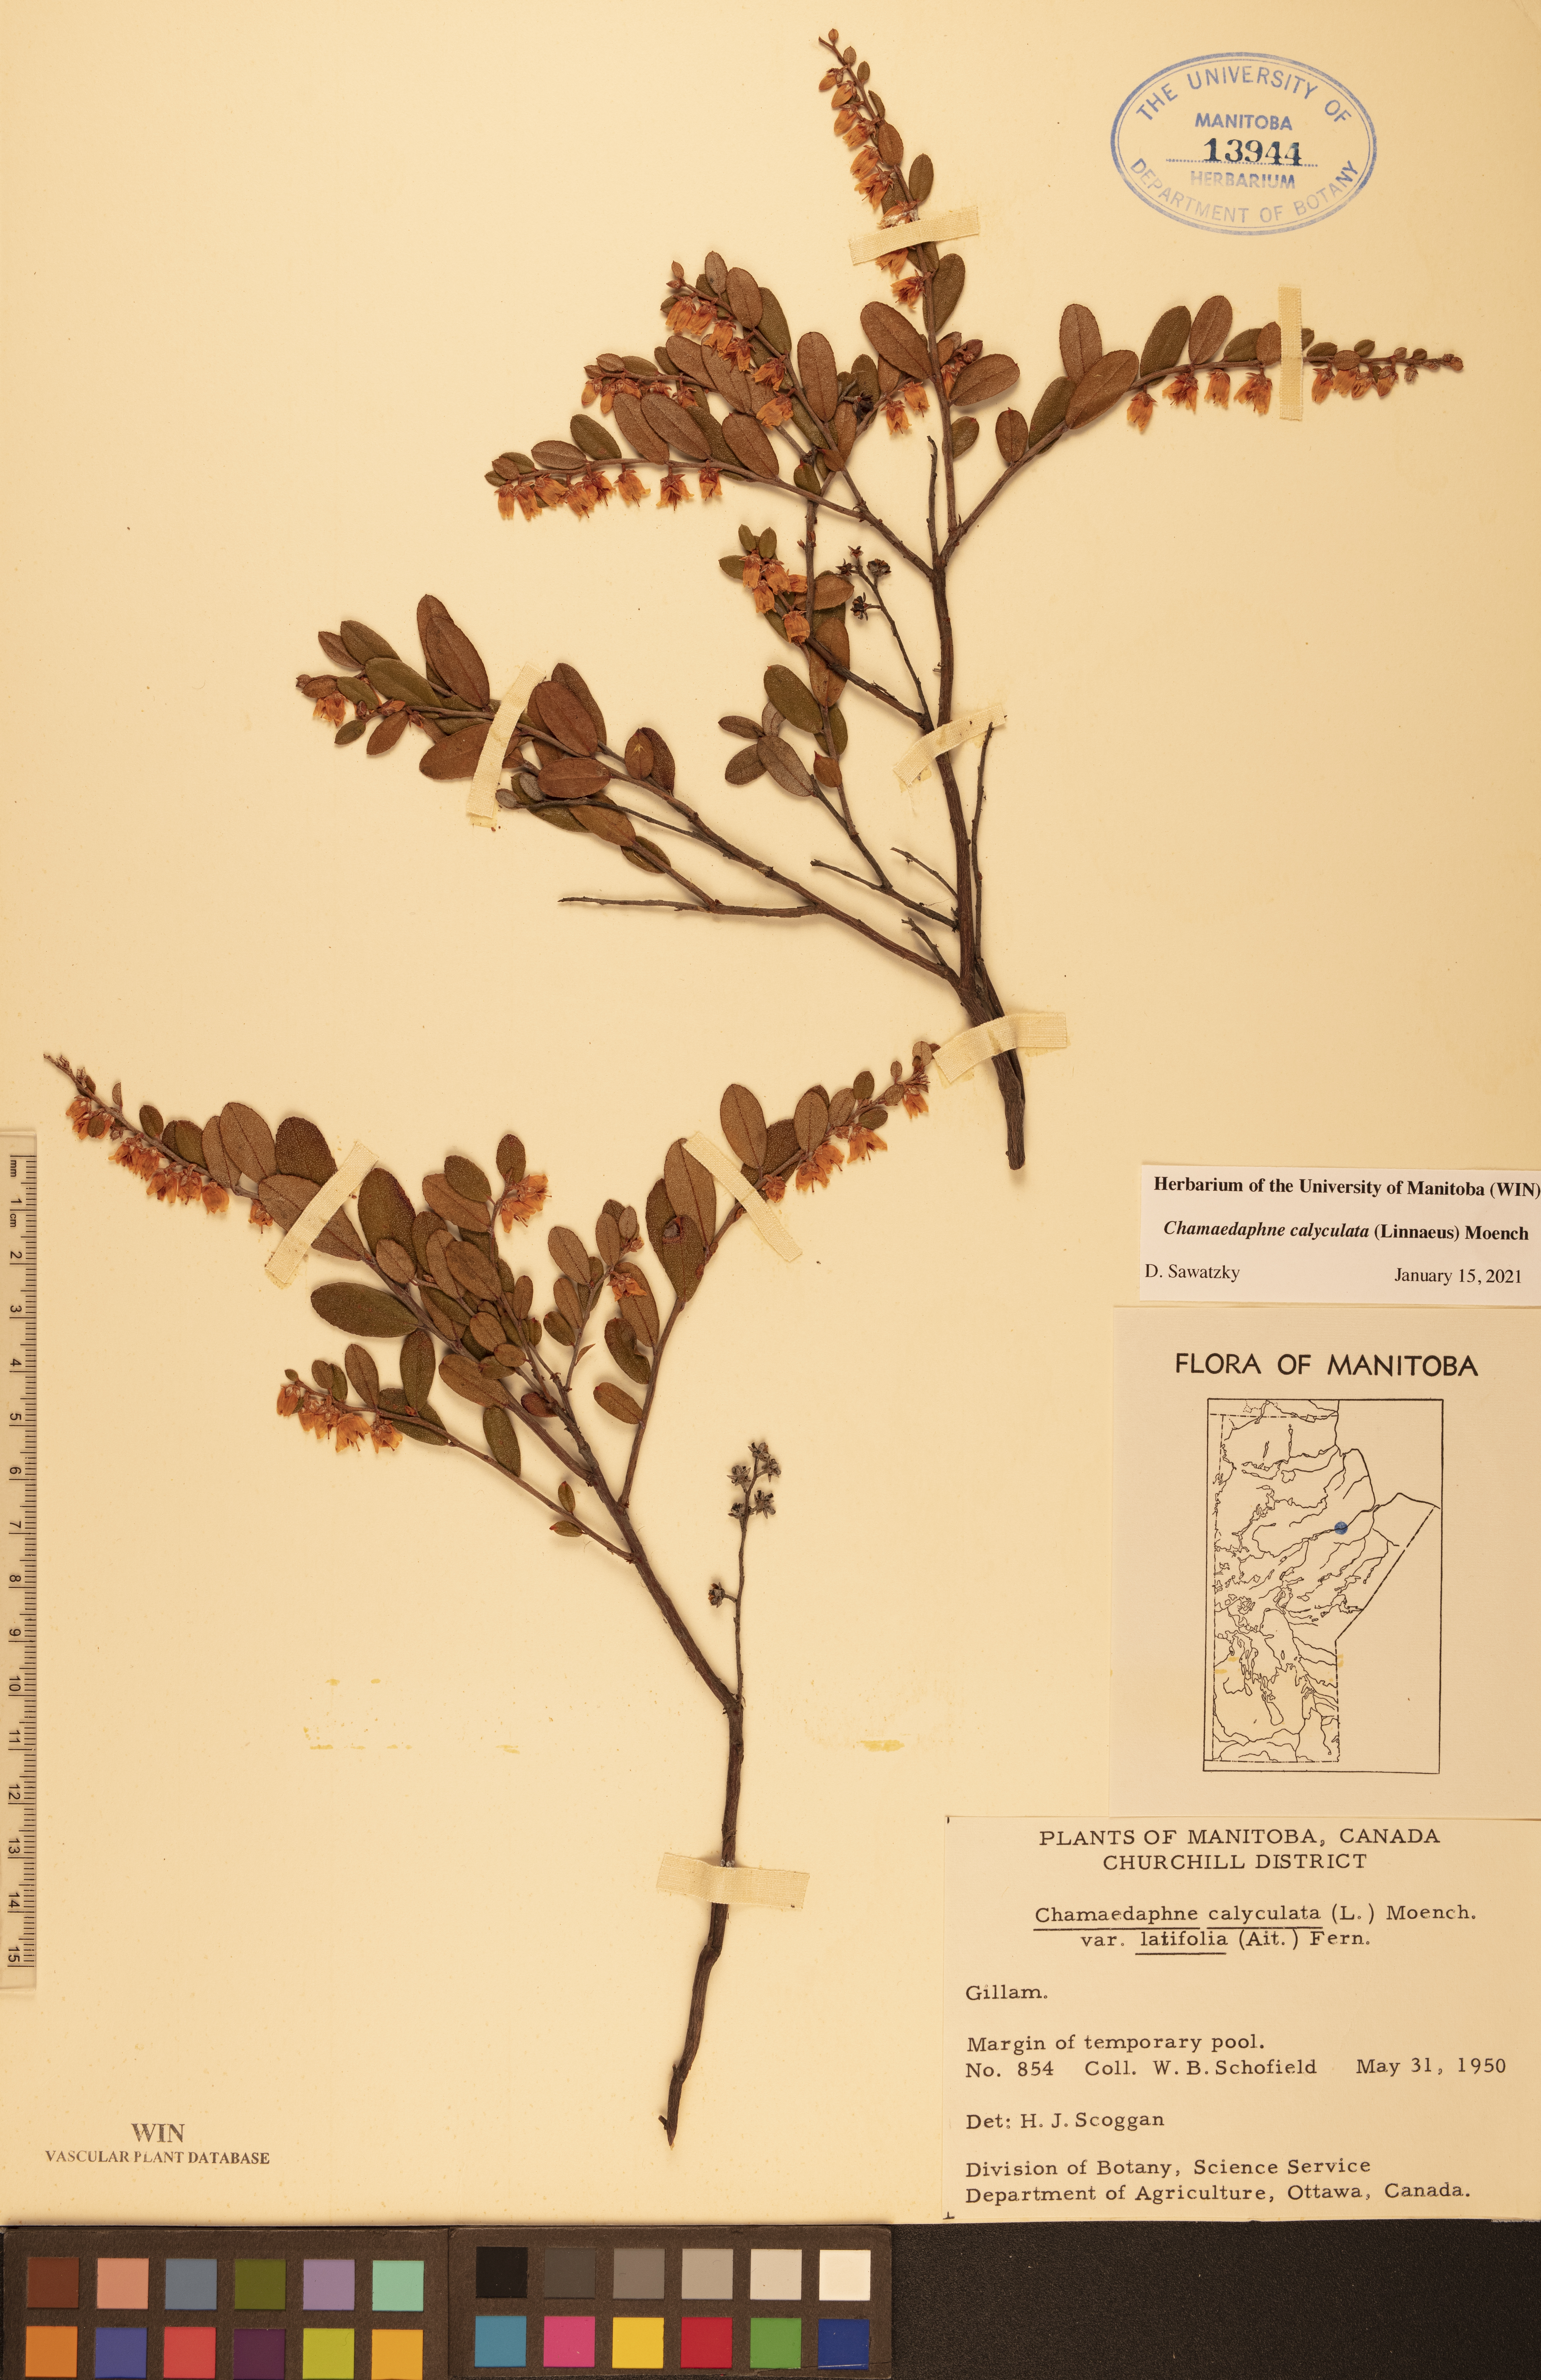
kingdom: Plantae
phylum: Tracheophyta
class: Magnoliopsida
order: Ericales
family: Ericaceae
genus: Chamaedaphne
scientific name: Chamaedaphne calyculata
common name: Leatherleaf
